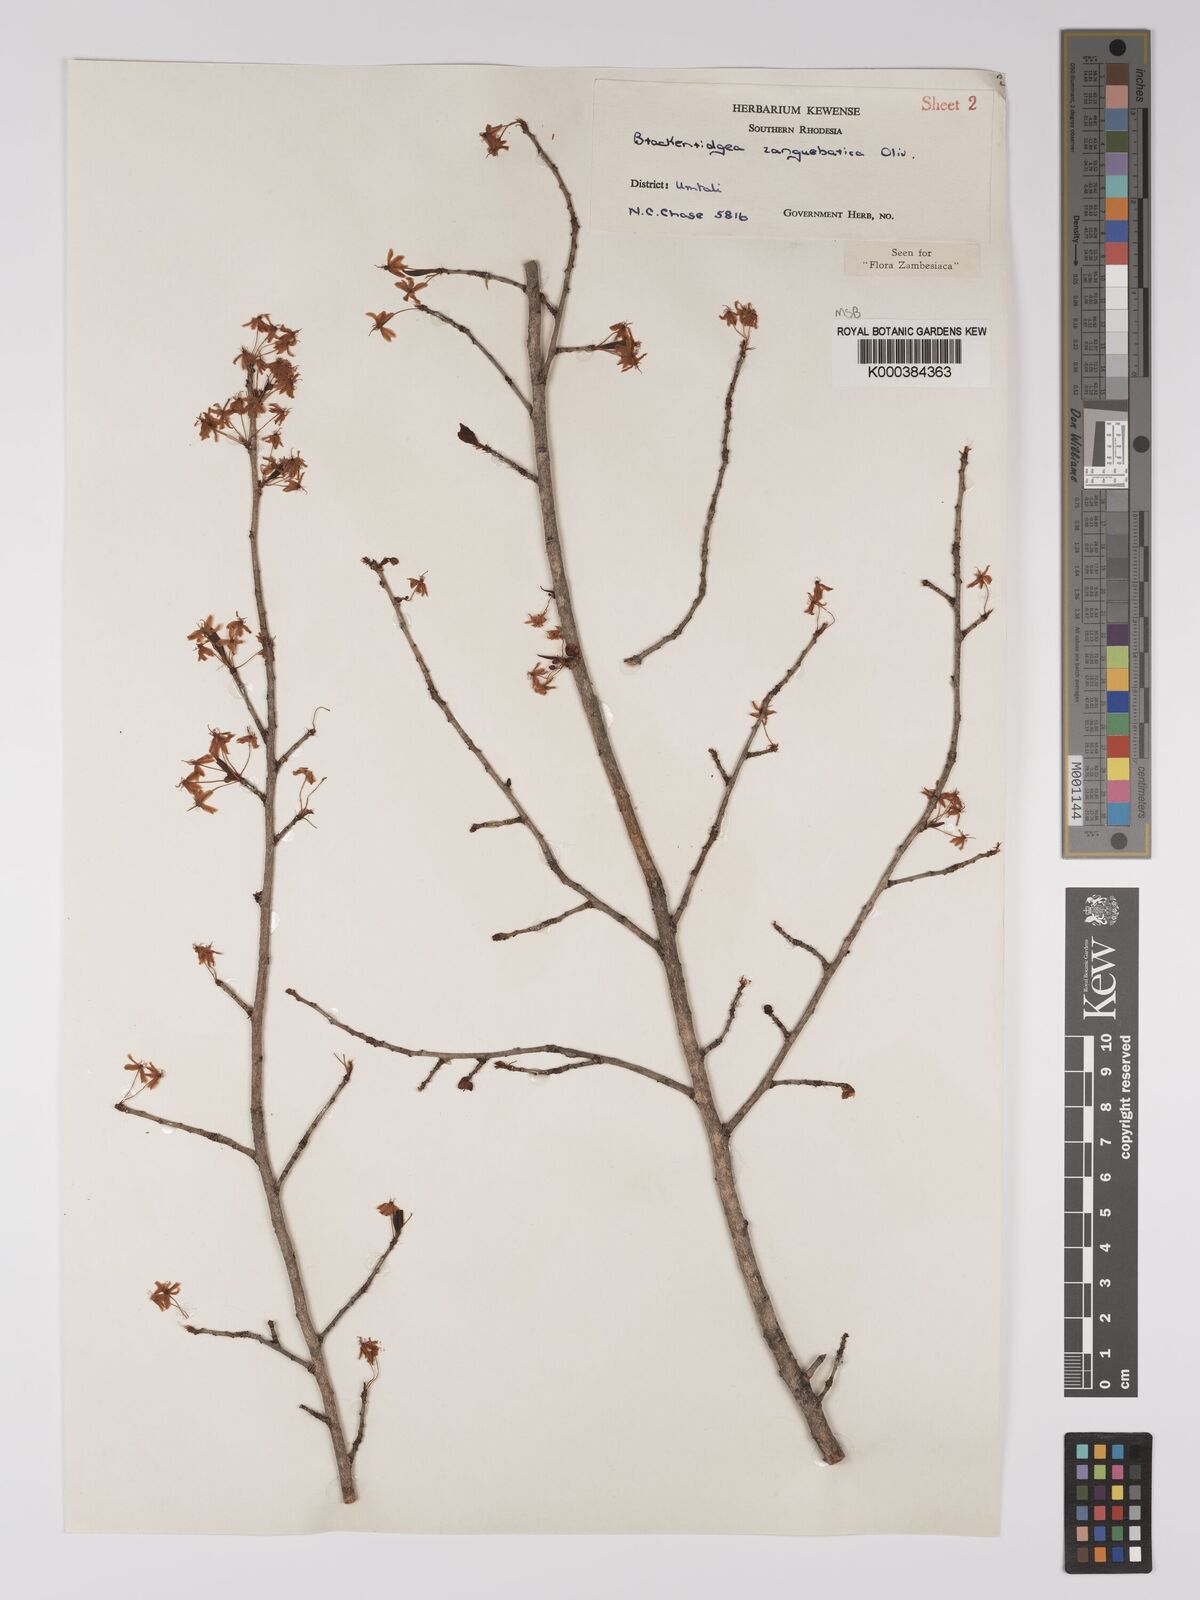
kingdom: Plantae
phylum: Tracheophyta
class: Magnoliopsida
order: Malpighiales
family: Ochnaceae
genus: Brackenridgea
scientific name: Brackenridgea zanguebarica
